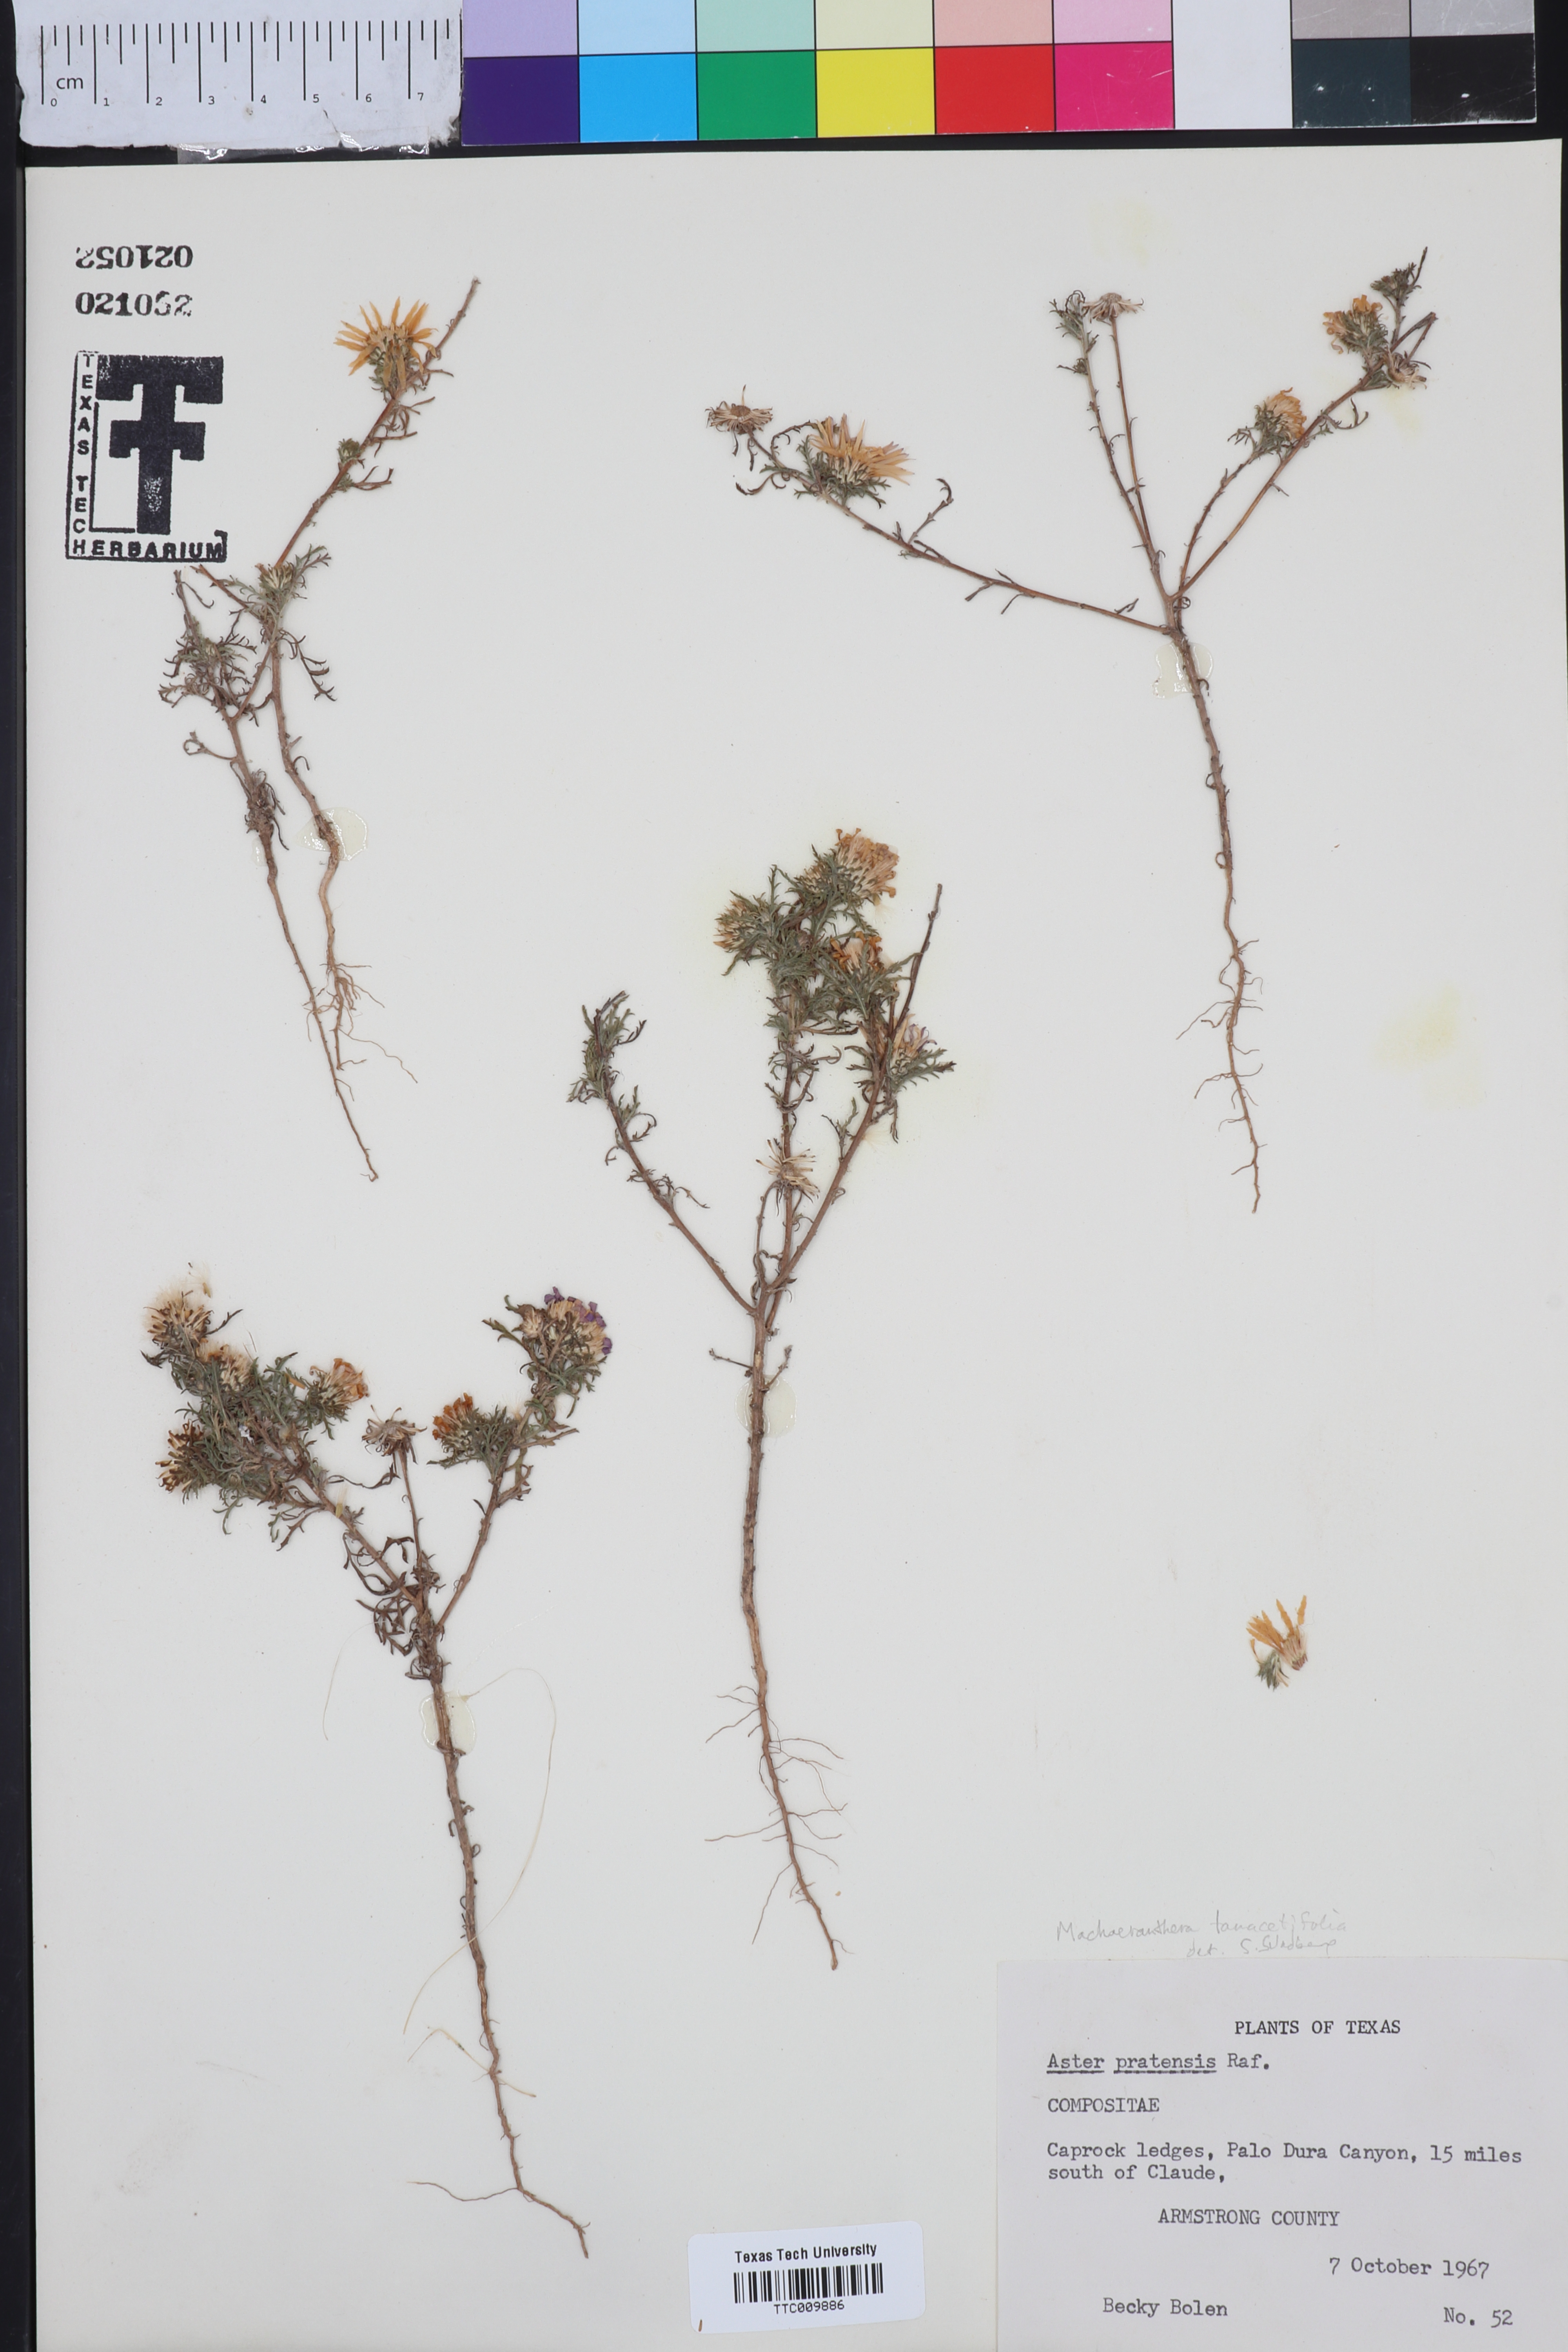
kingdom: Plantae
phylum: Tracheophyta
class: Magnoliopsida
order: Asterales
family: Asteraceae
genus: Machaeranthera
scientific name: Machaeranthera tanacetifolia
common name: Tansy-aster
